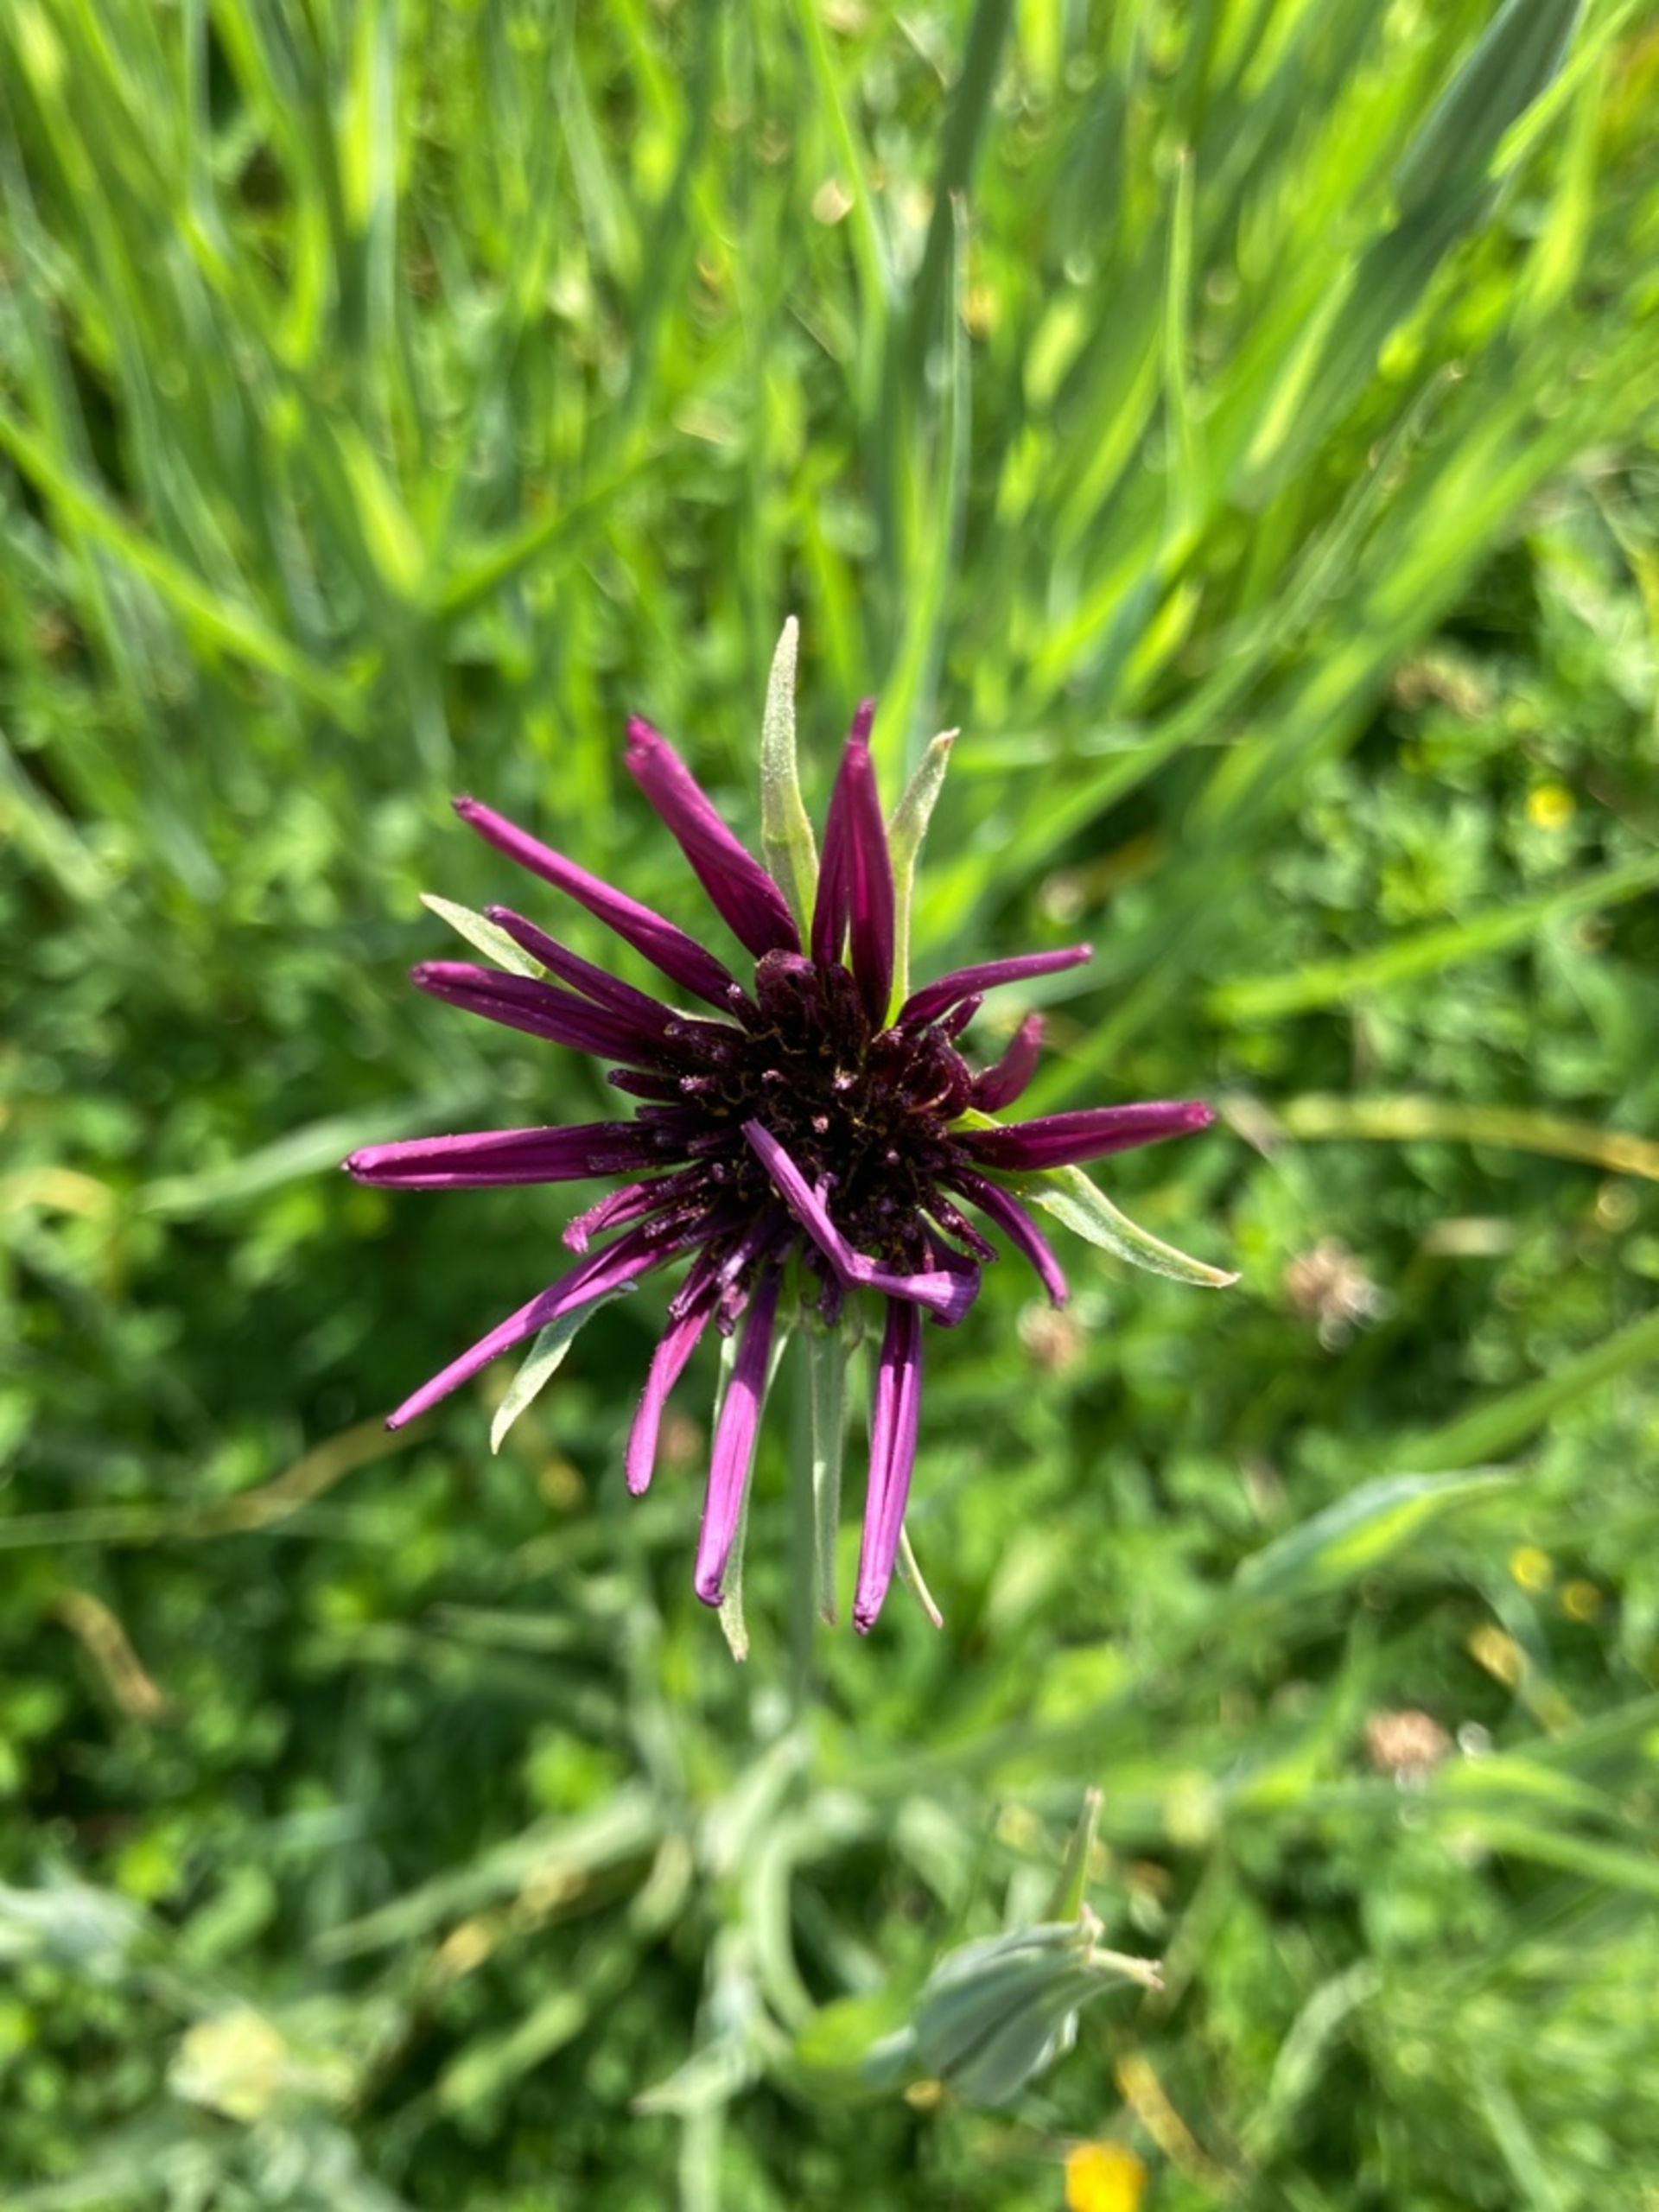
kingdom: Plantae
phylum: Tracheophyta
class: Magnoliopsida
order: Asterales
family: Asteraceae
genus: Tragopogon
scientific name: Tragopogon porrifolius
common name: Havrerod
